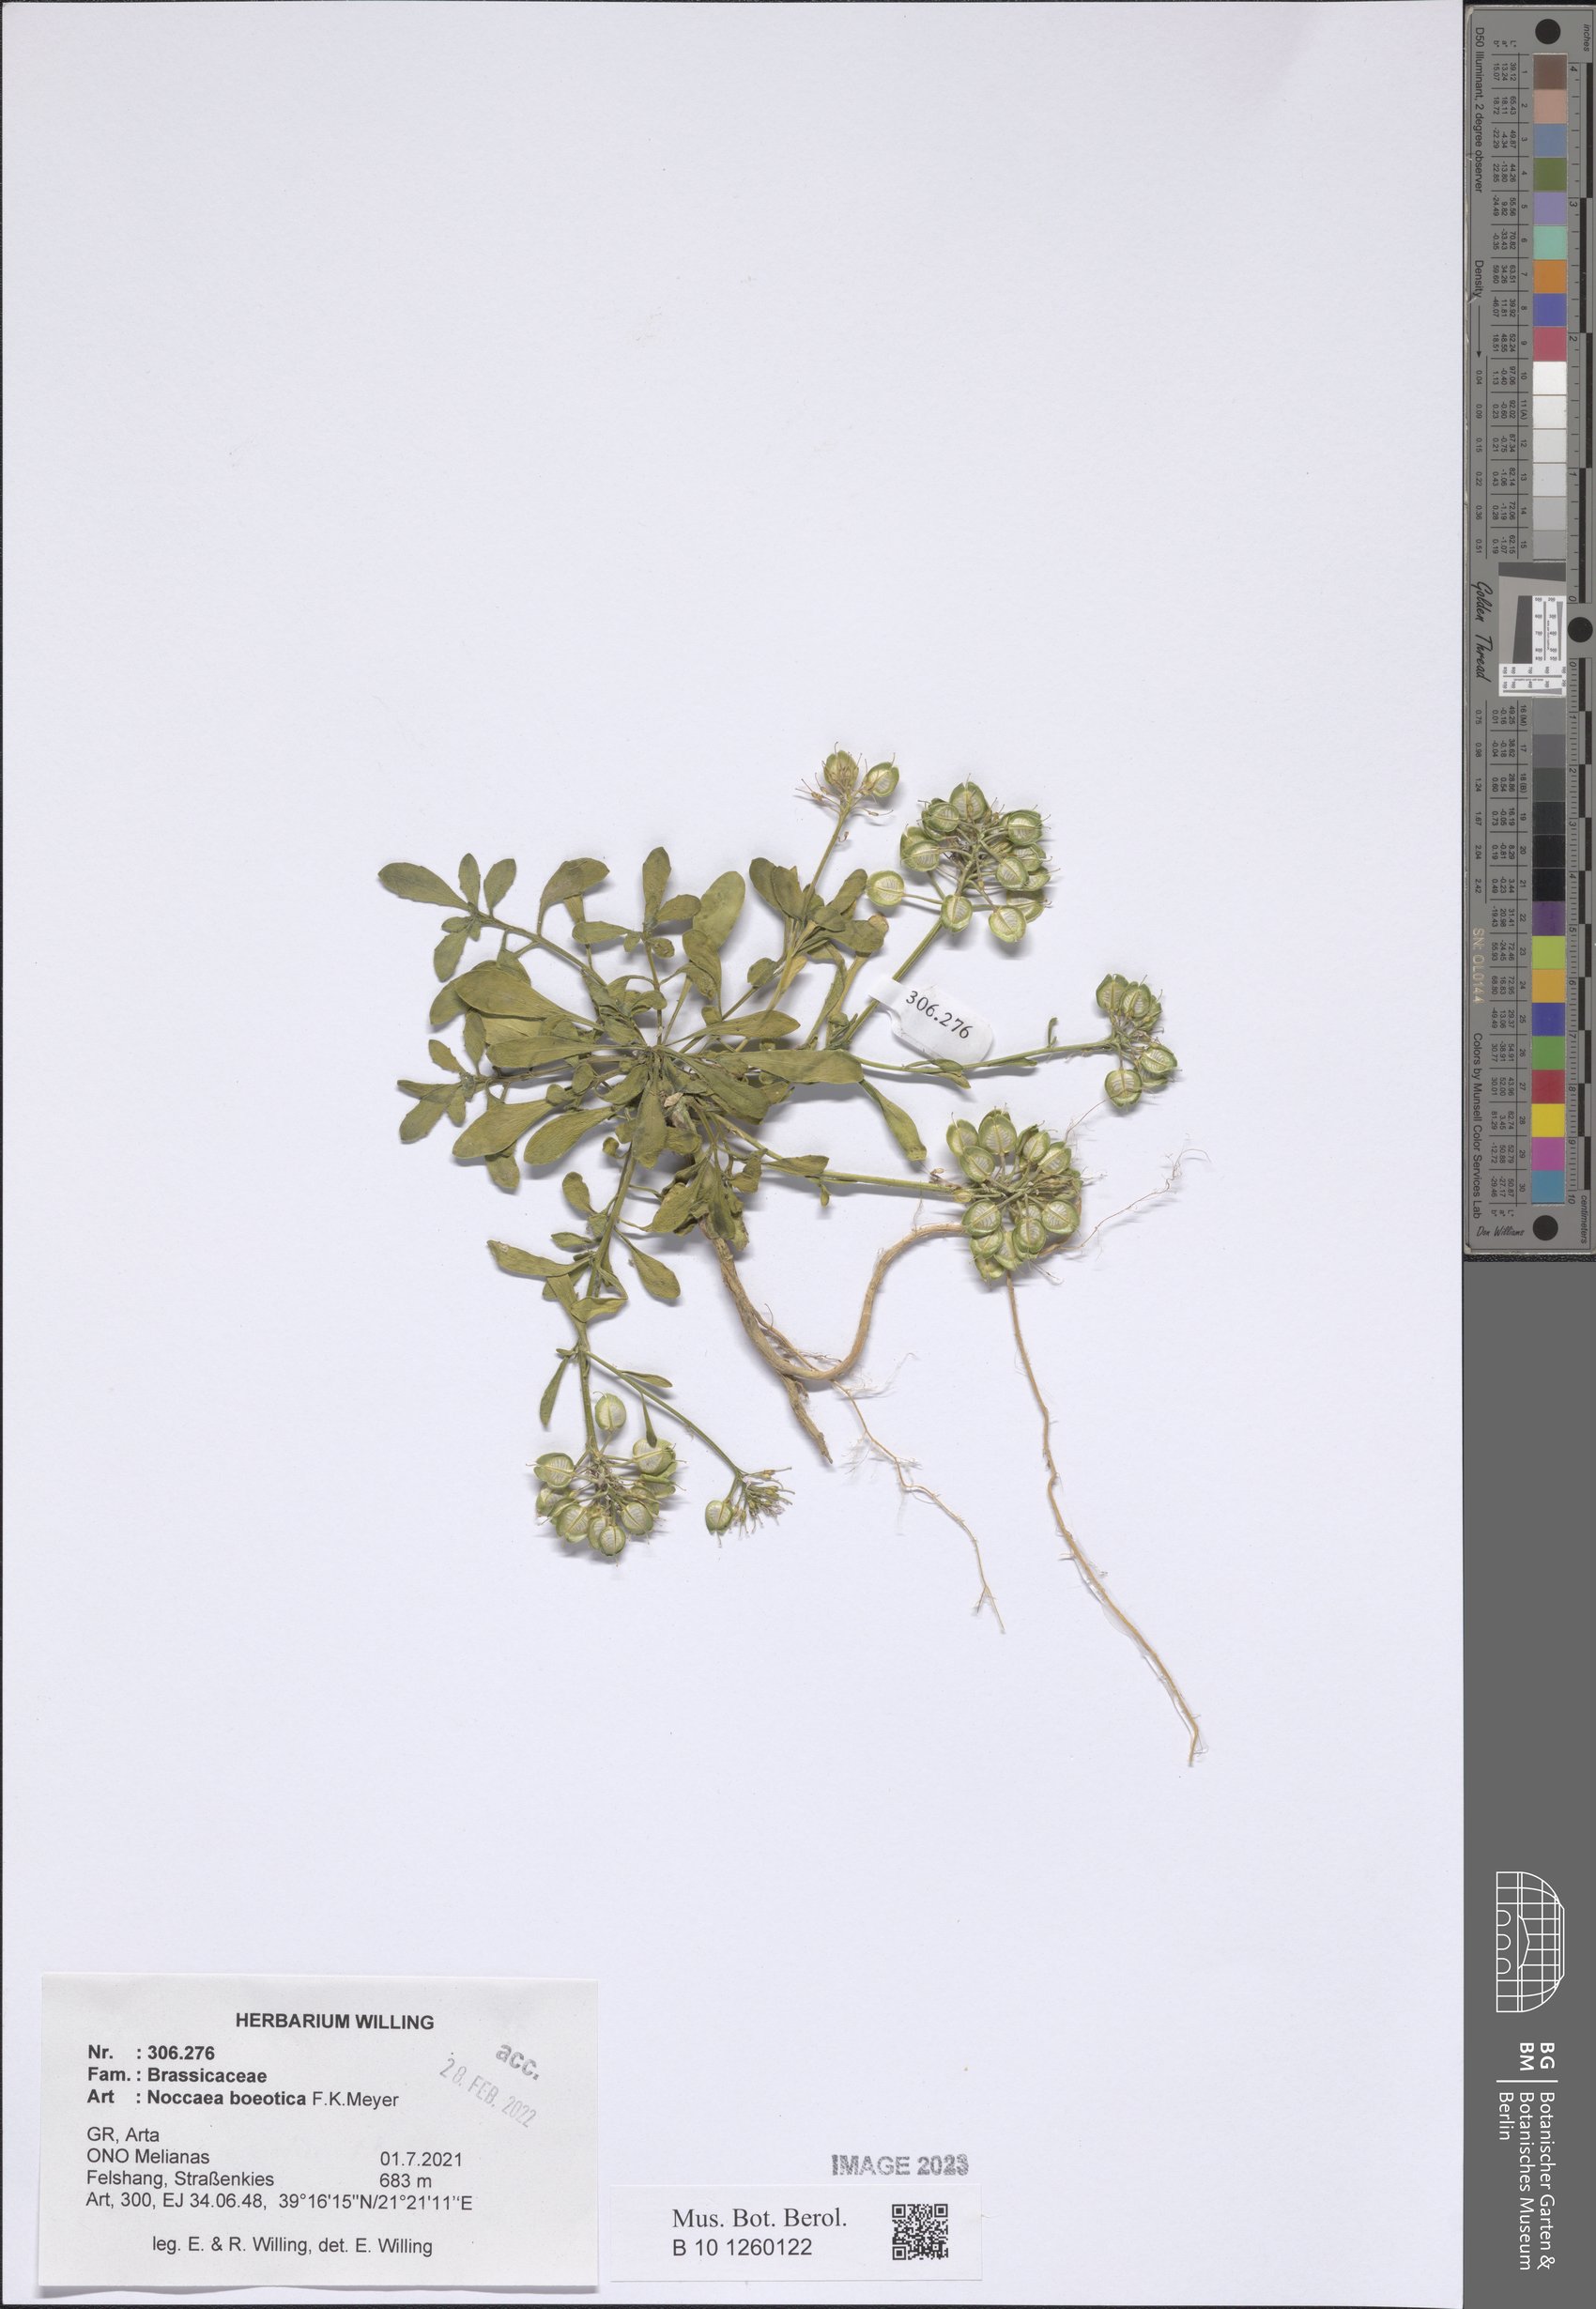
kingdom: Plantae
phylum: Tracheophyta
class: Magnoliopsida
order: Brassicales
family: Brassicaceae
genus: Noccaea
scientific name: Noccaea boeotica
